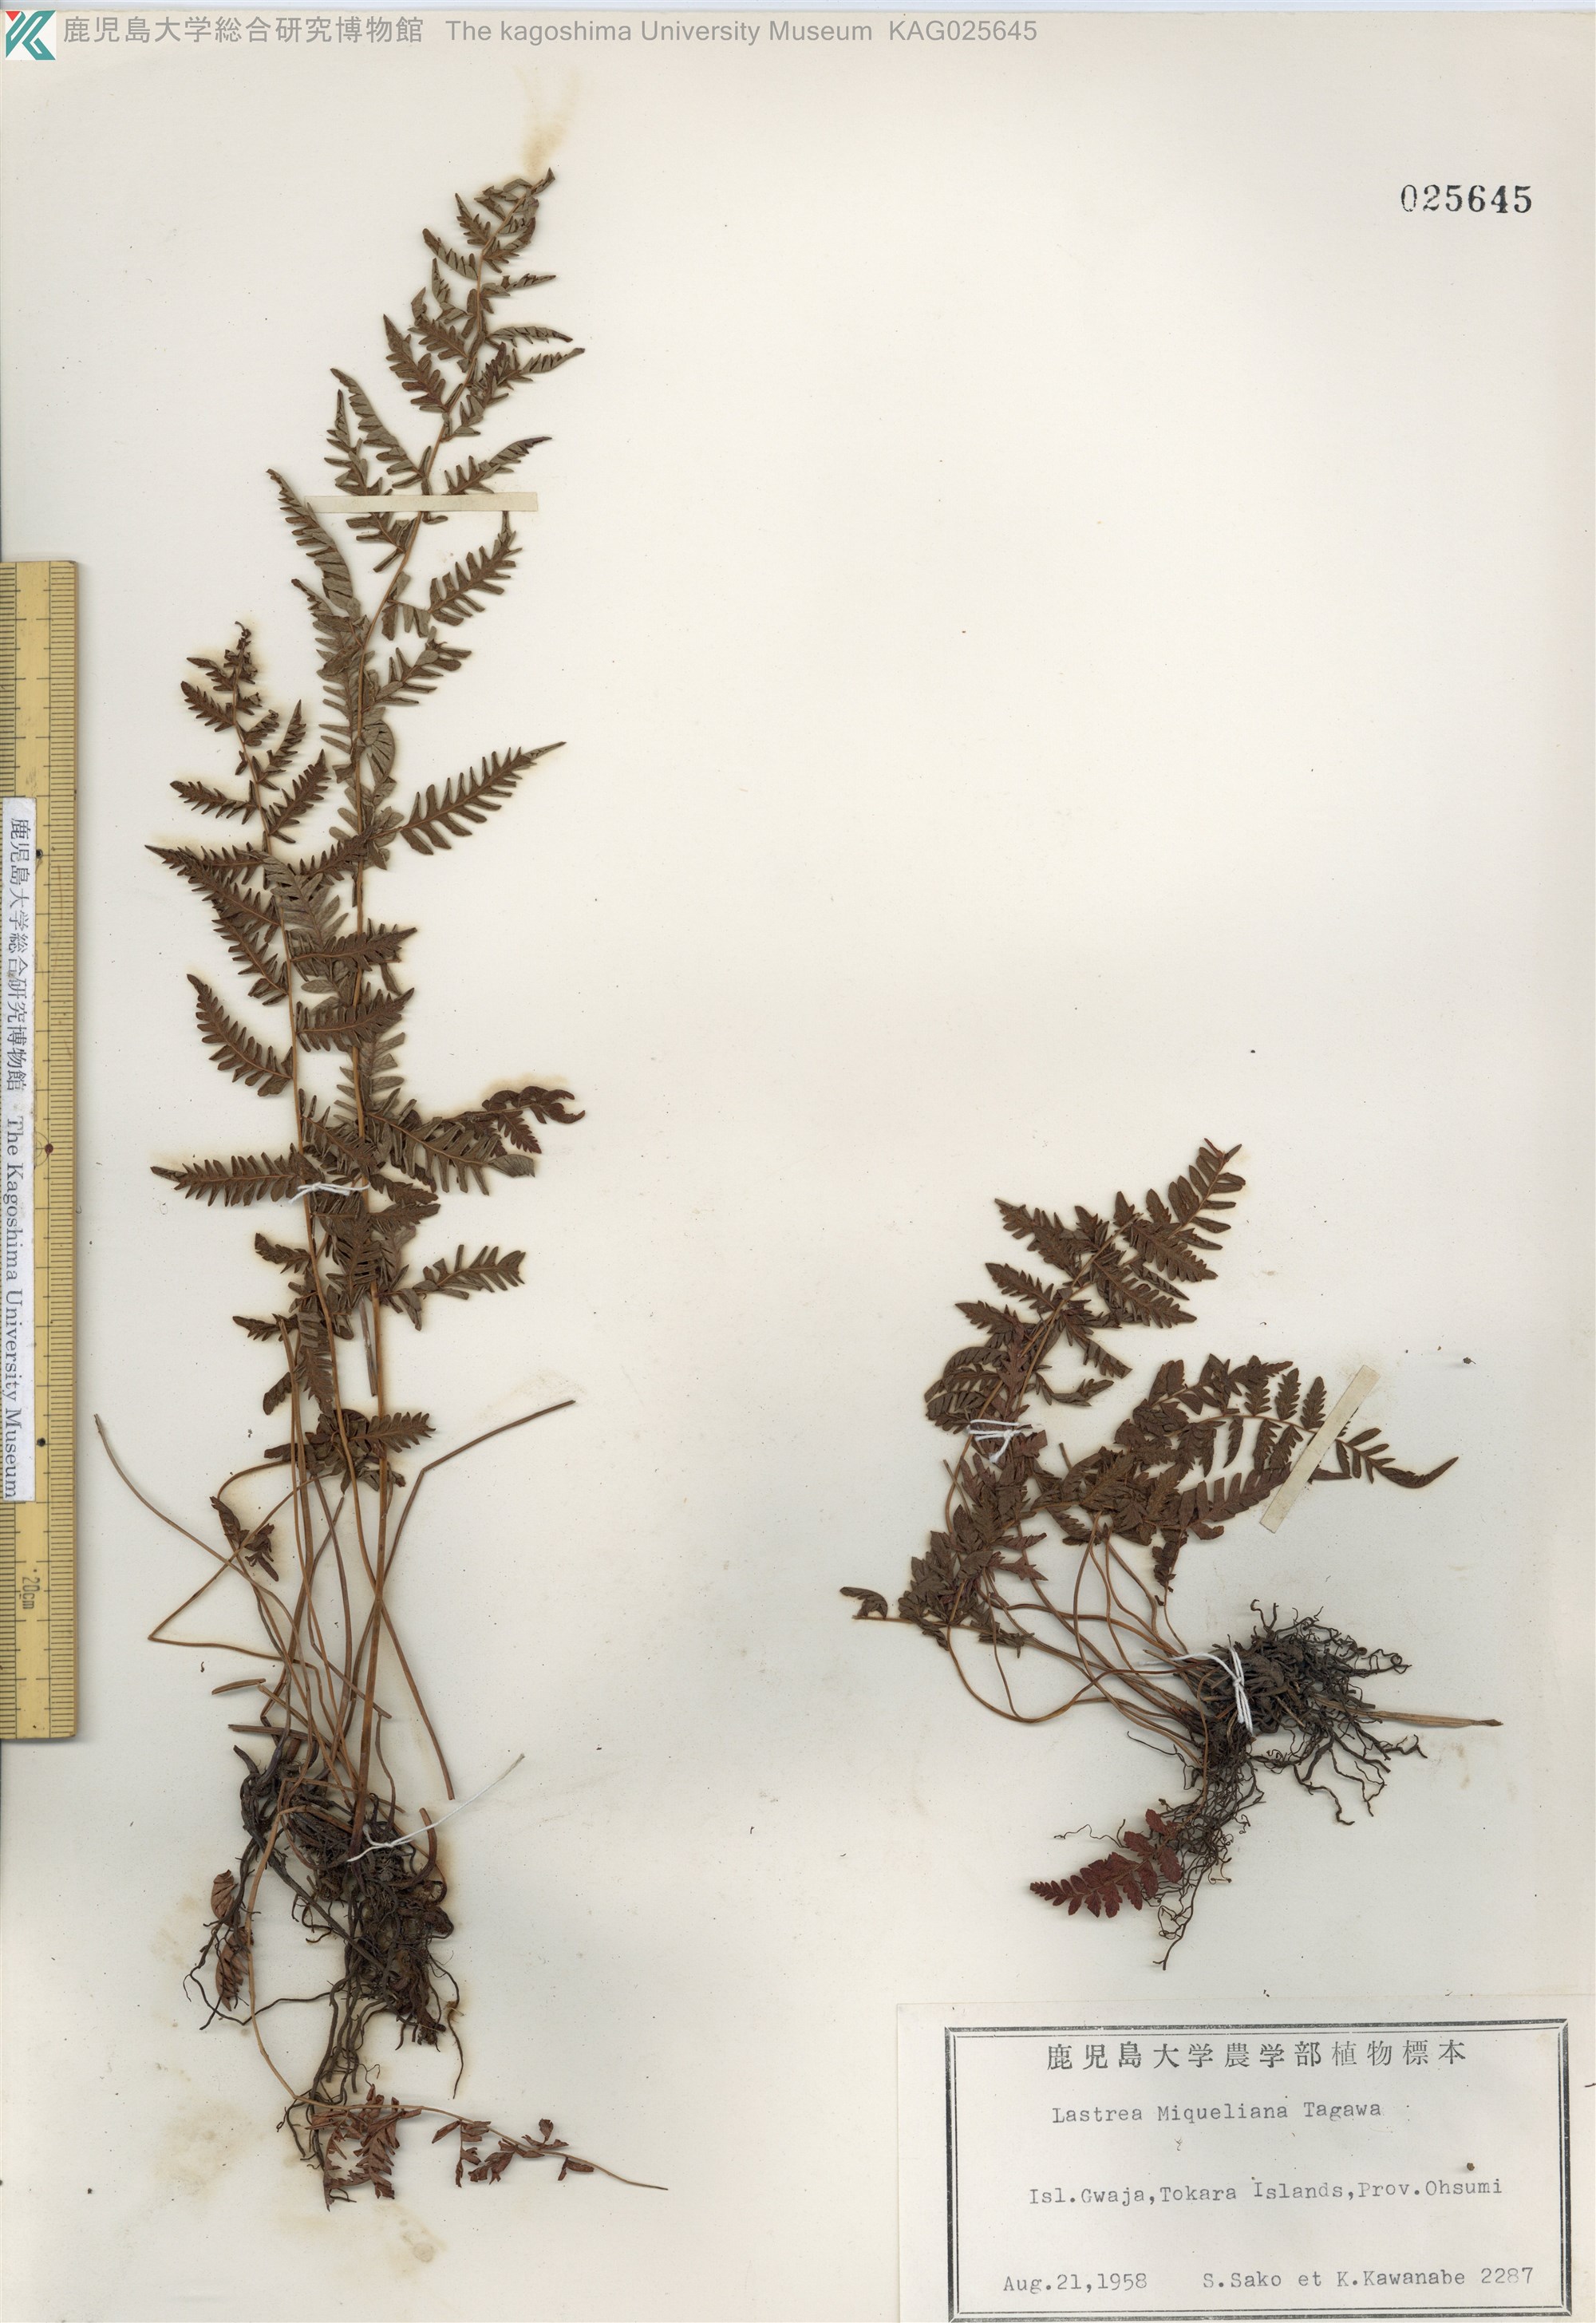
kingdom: Plantae
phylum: Tracheophyta
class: Polypodiopsida
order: Polypodiales
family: Thelypteridaceae
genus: Amauropelta
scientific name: Amauropelta angustifrons
